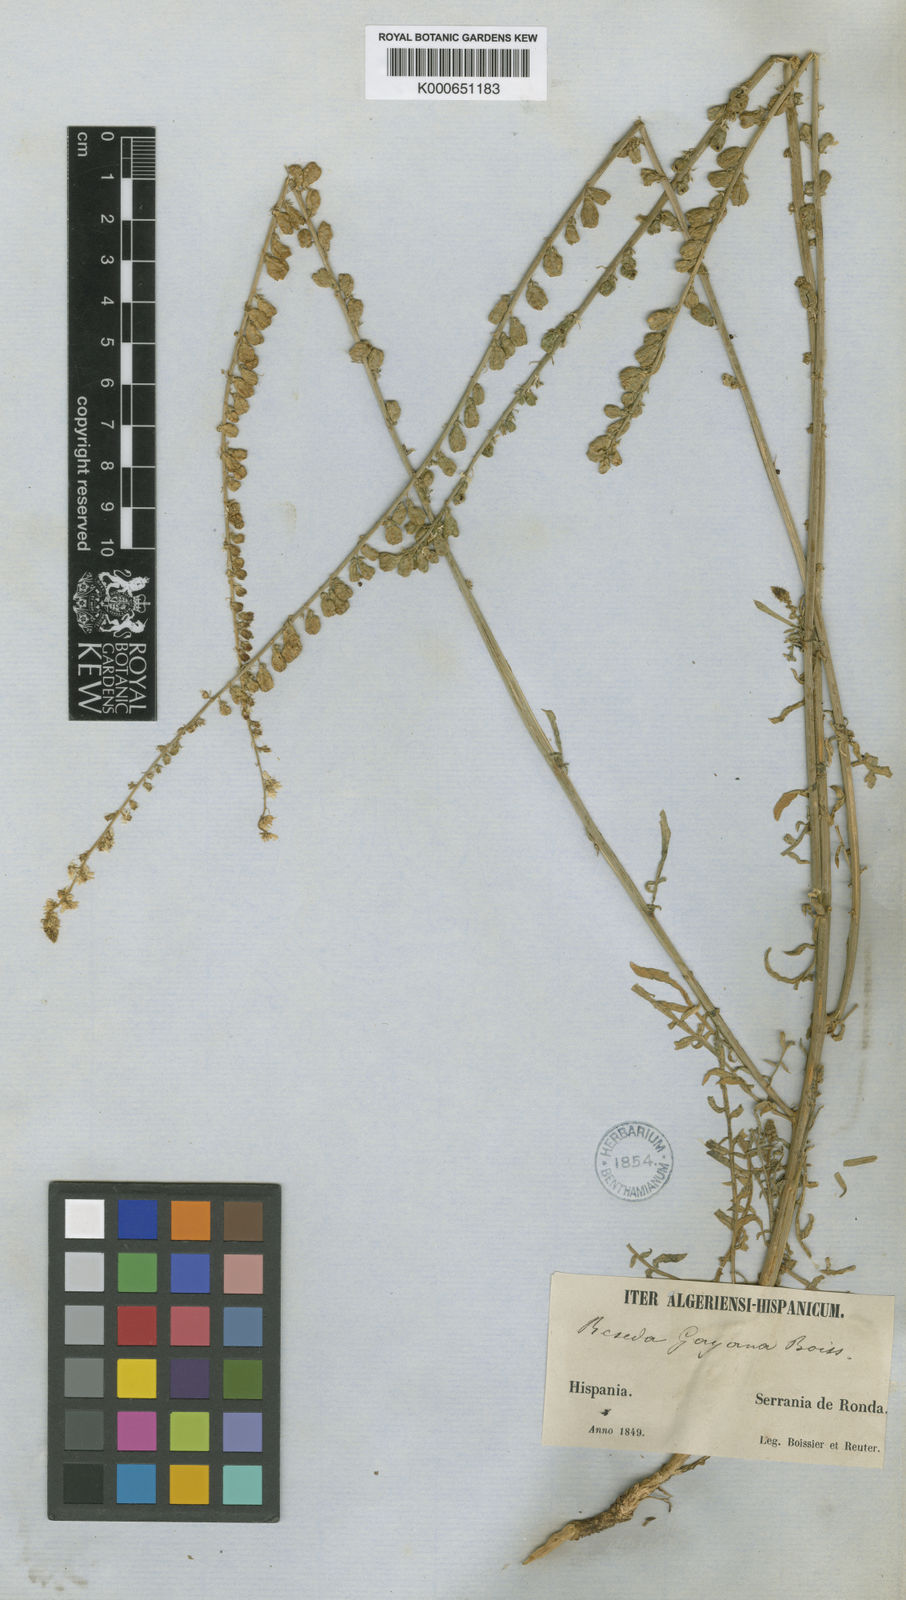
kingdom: Plantae
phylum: Tracheophyta
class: Magnoliopsida
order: Brassicales
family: Resedaceae
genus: Reseda
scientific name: Reseda undata
